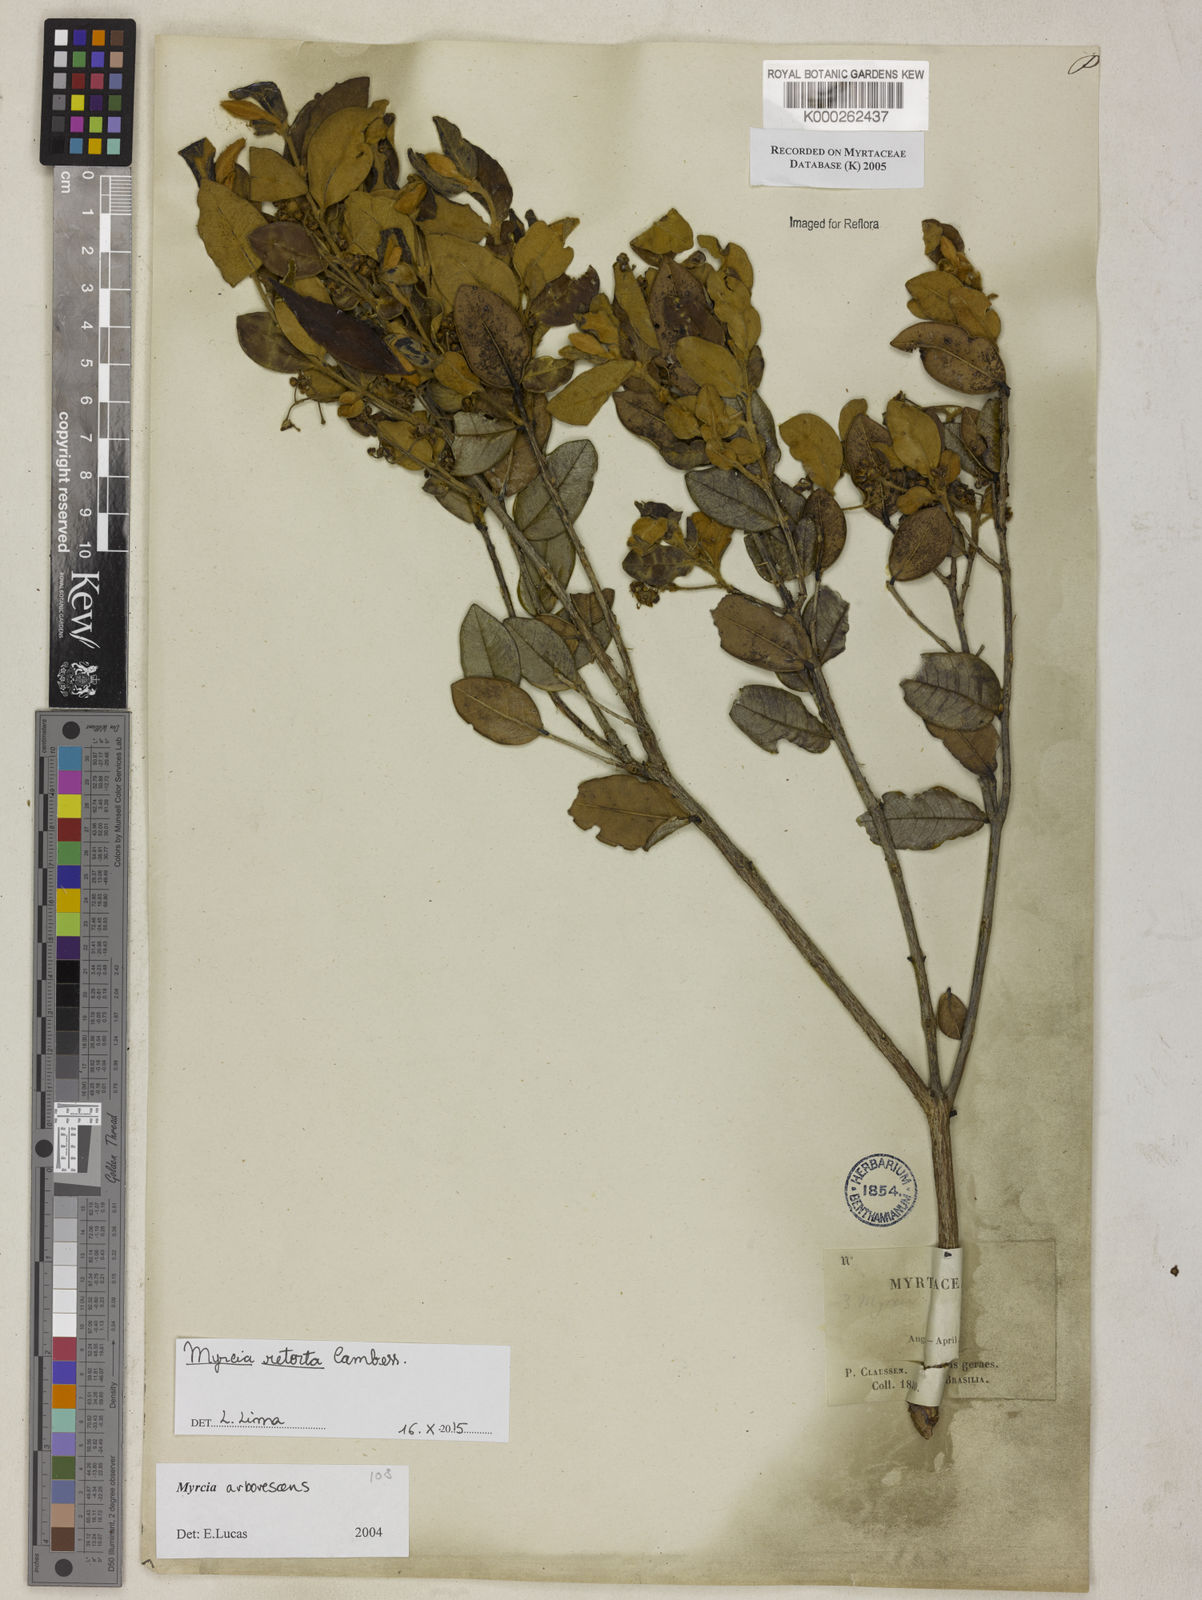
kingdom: Plantae
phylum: Tracheophyta
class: Magnoliopsida
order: Myrtales
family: Myrtaceae
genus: Myrcia
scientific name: Myrcia retorta
